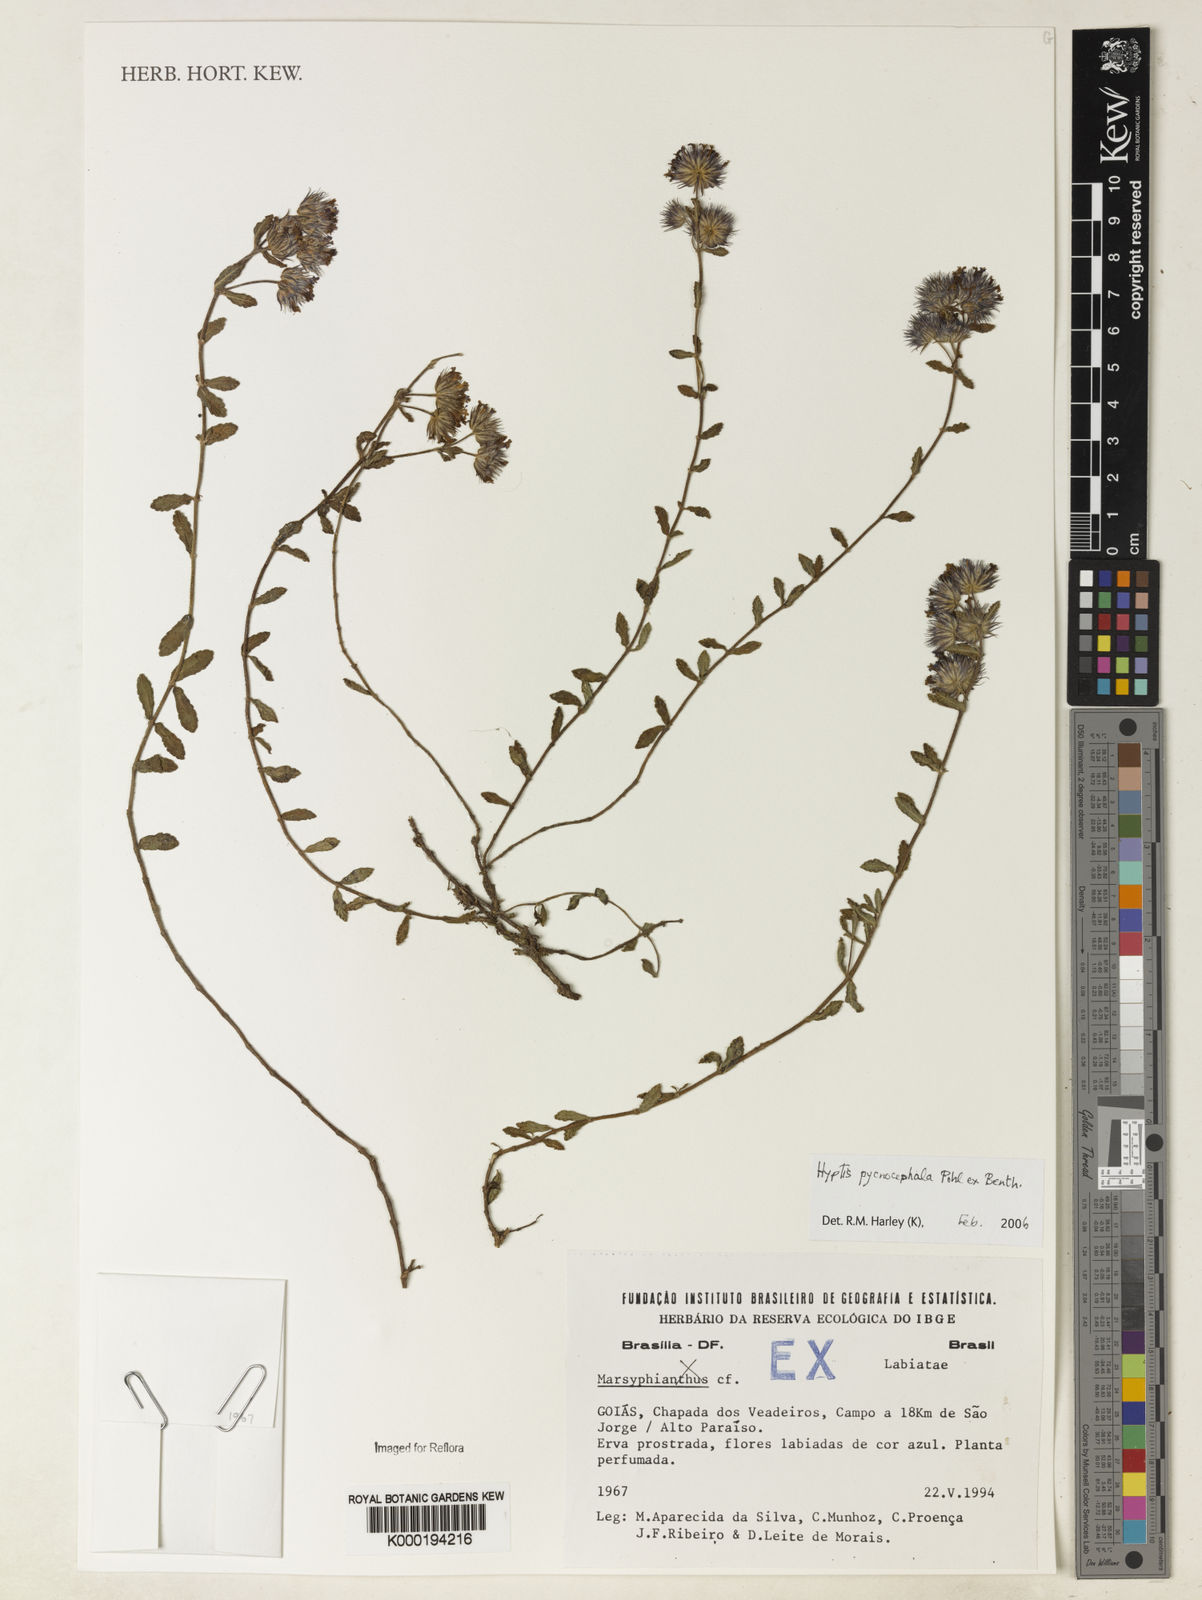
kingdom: Plantae
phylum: Tracheophyta
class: Magnoliopsida
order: Lamiales
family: Lamiaceae
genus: Hyptis
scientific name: Hyptis pycnocephala
